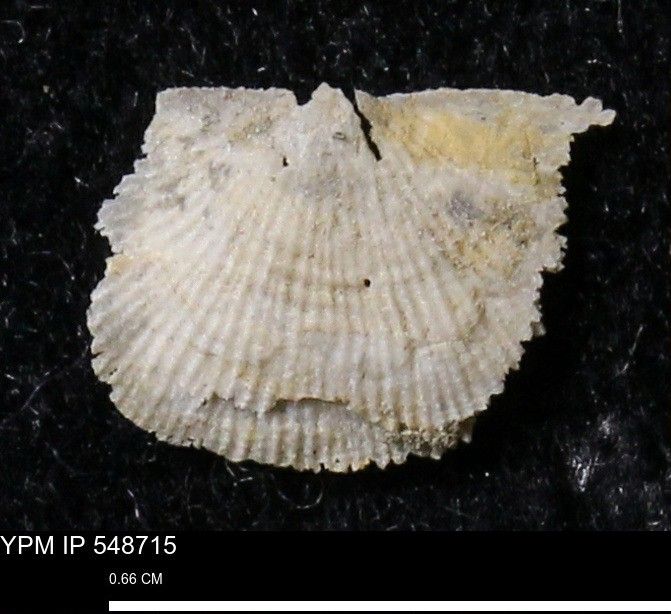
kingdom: Animalia
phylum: Brachiopoda
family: Stropheodontidae
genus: Protoleptostrophia
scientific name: Protoleptostrophia Strophomena perplana
